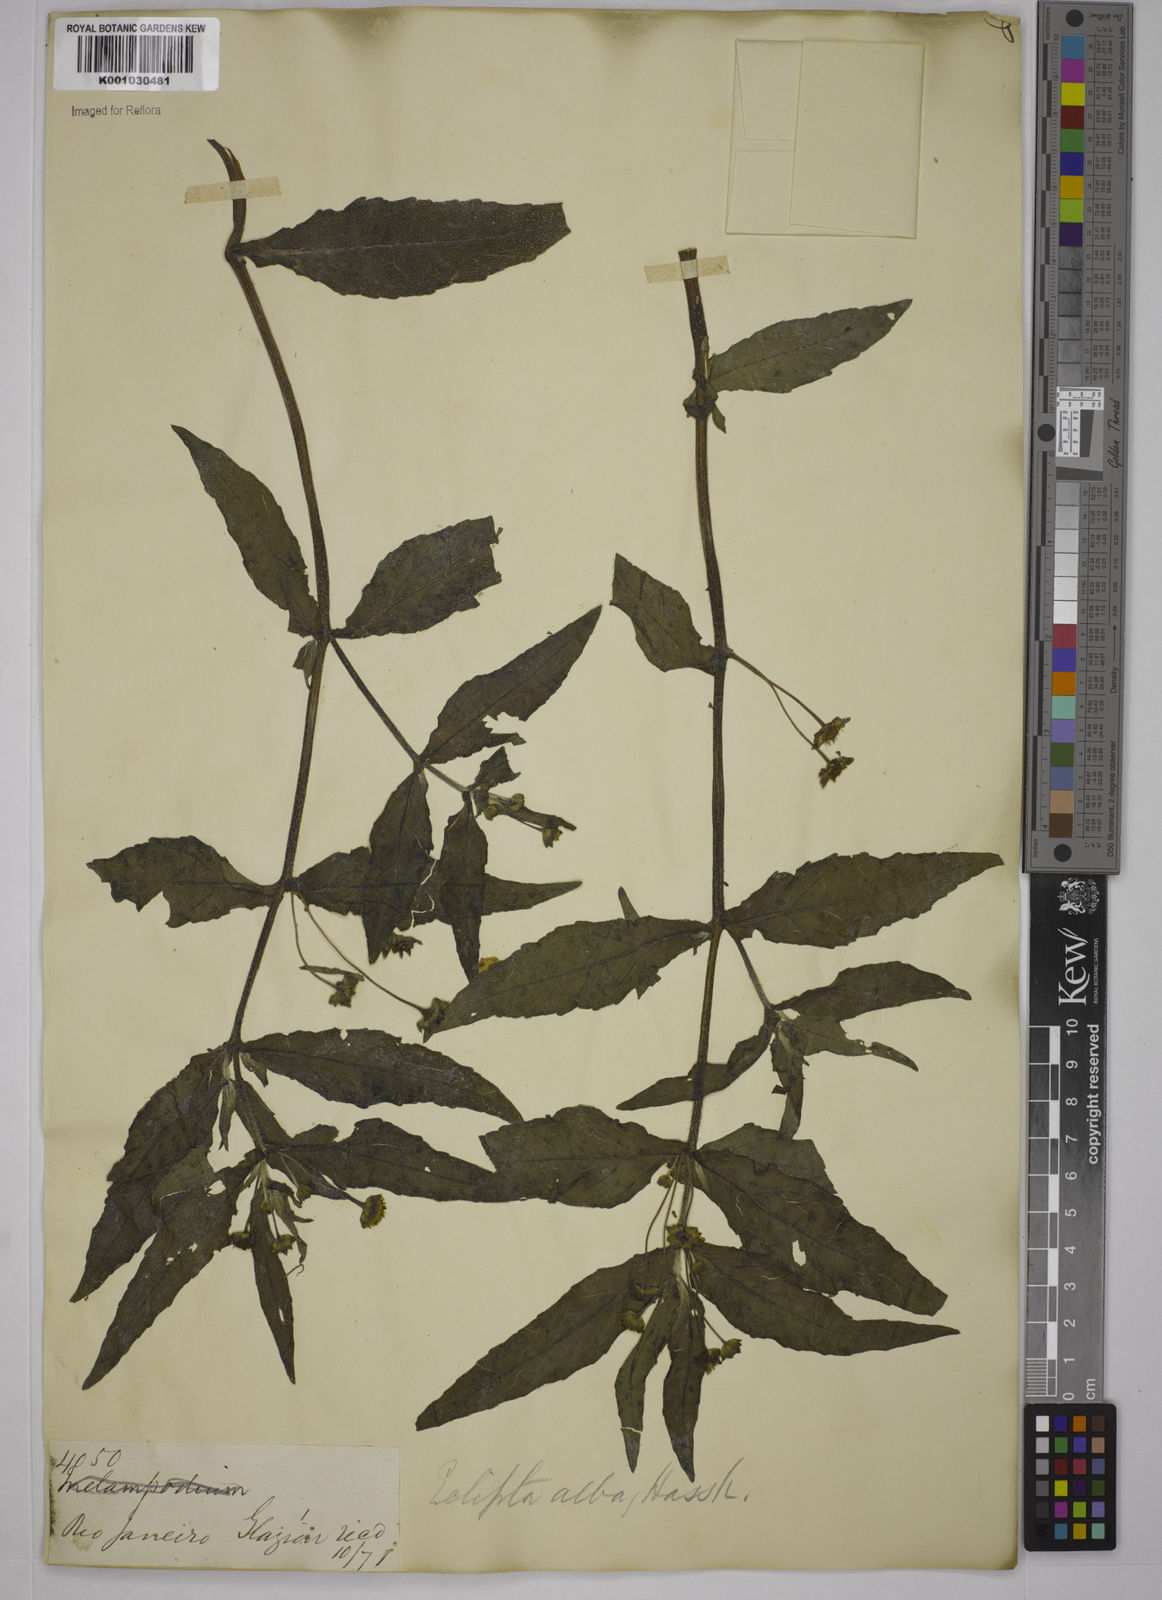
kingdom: Plantae
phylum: Tracheophyta
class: Magnoliopsida
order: Asterales
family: Asteraceae
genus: Eclipta
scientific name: Eclipta prostrata
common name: False daisy
